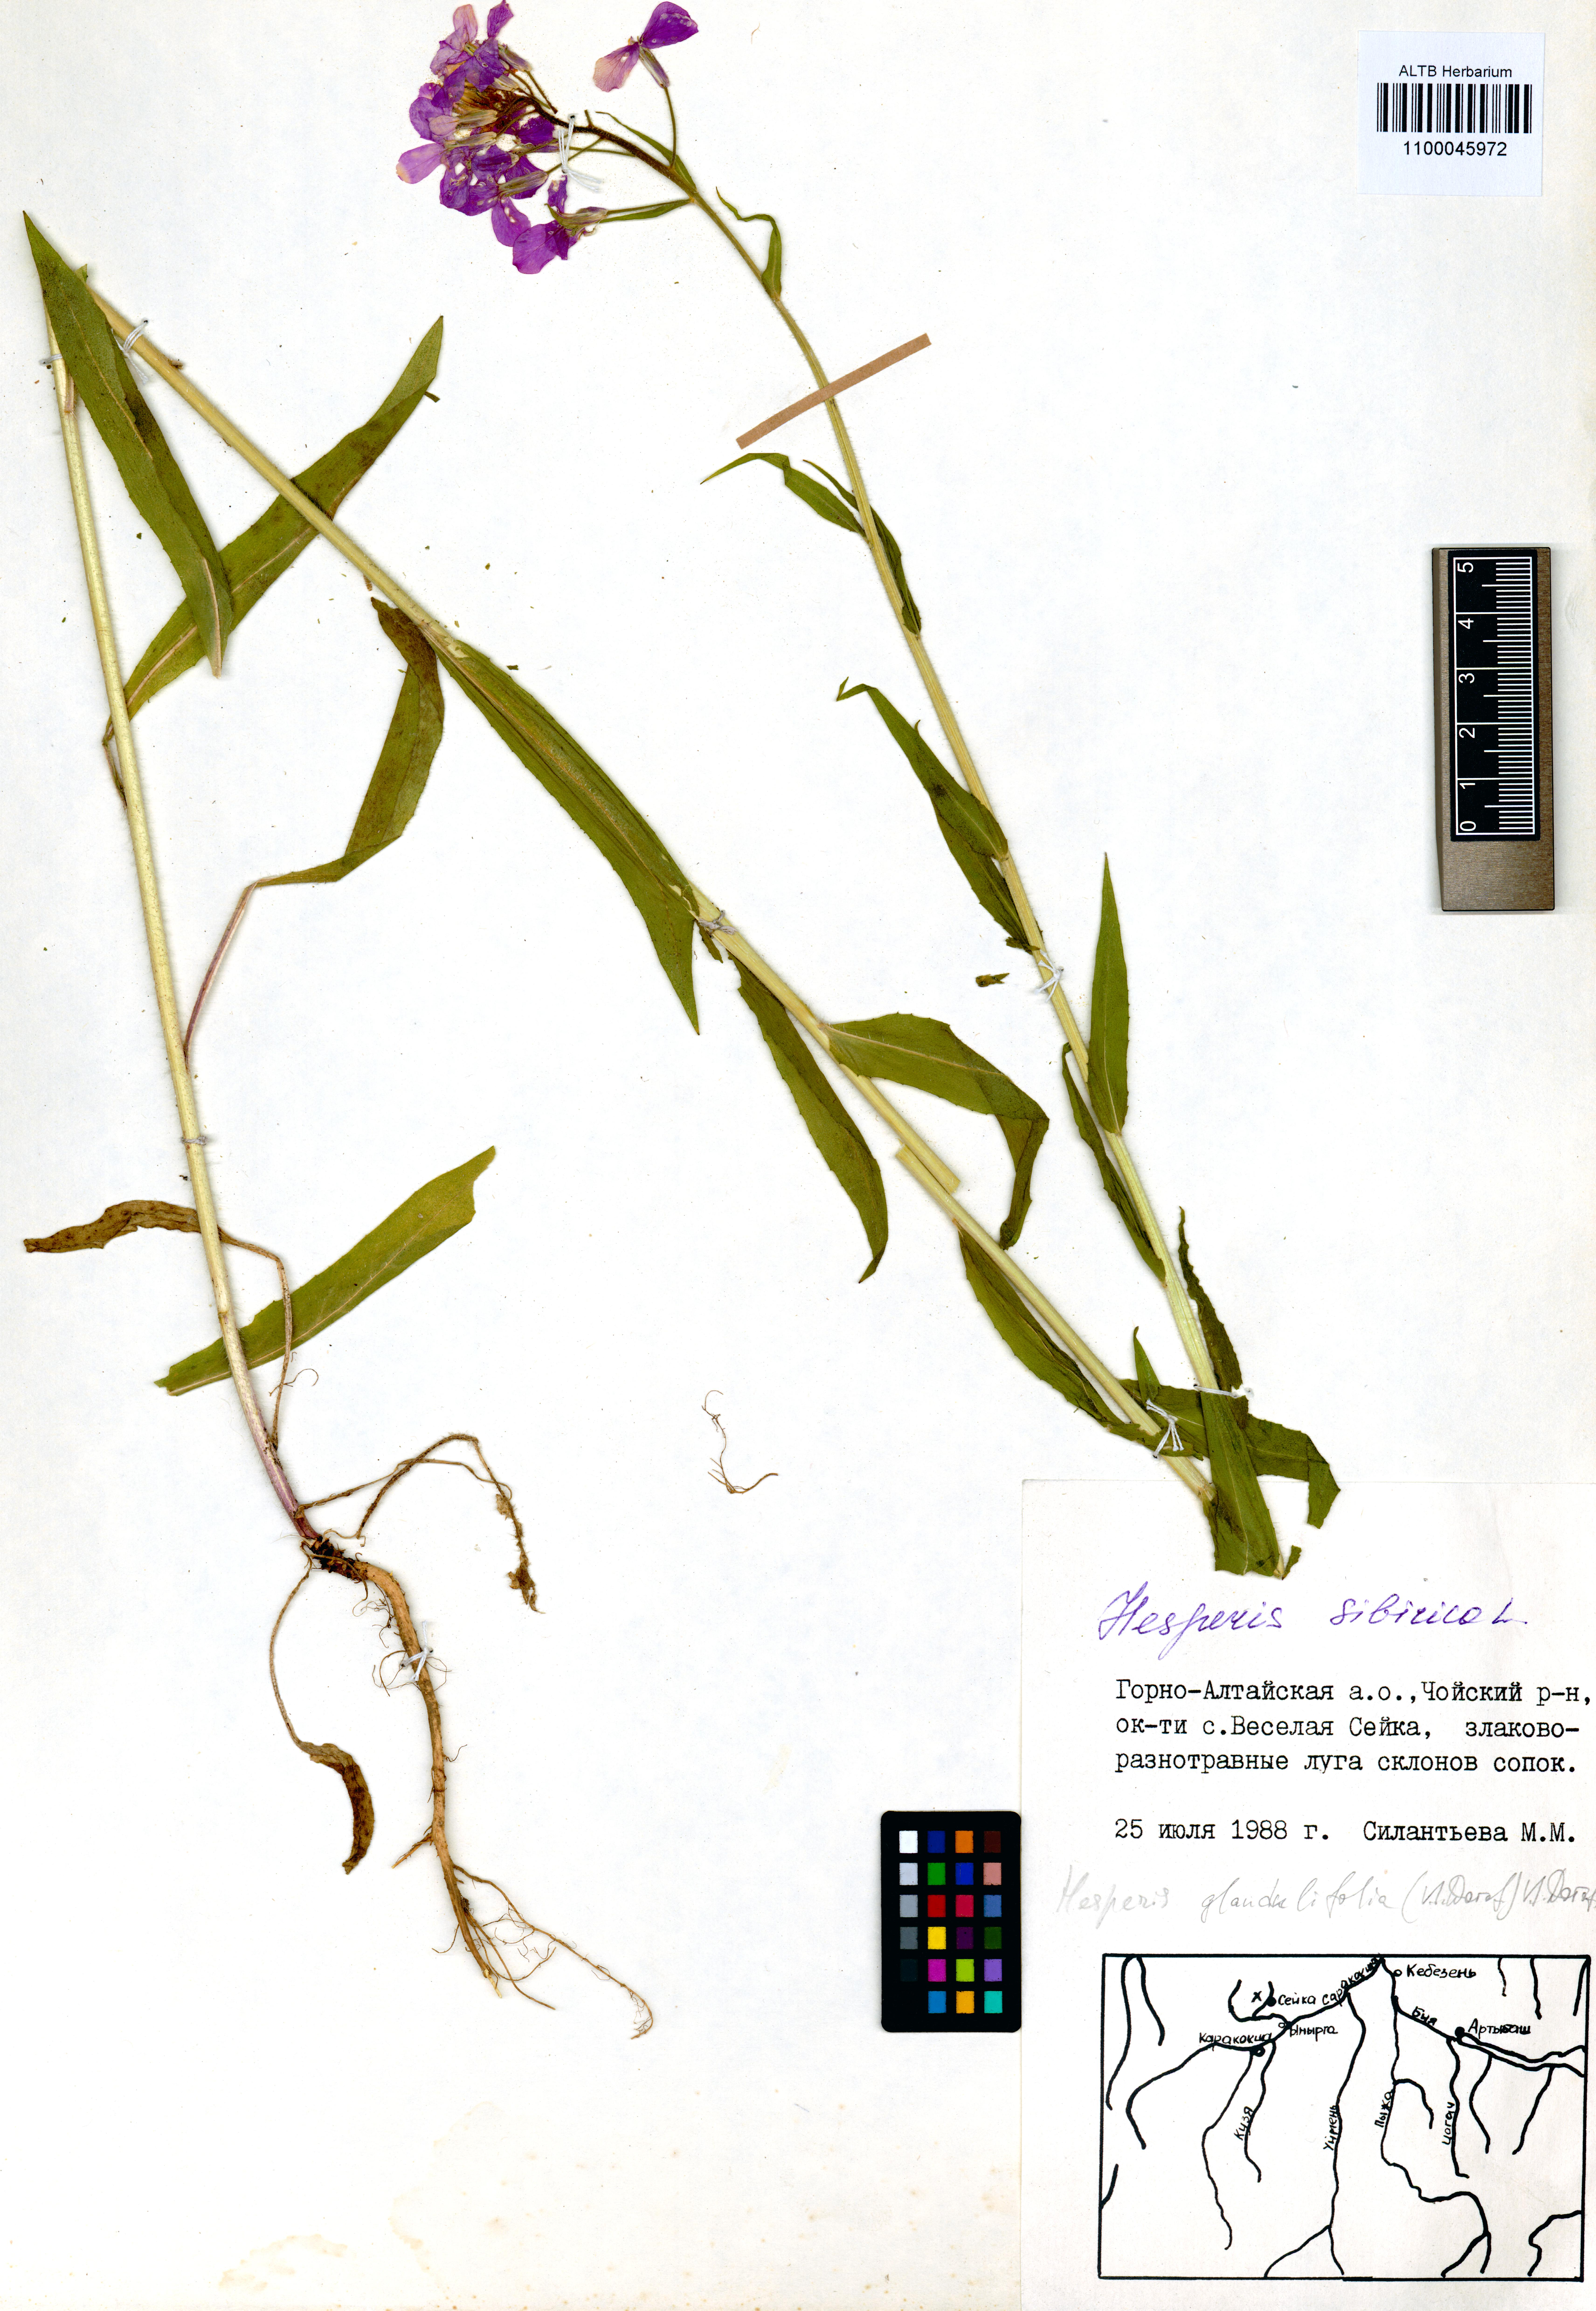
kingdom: Plantae
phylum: Tracheophyta
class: Magnoliopsida
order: Brassicales
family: Brassicaceae
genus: Hesperis
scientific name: Hesperis sibirica
